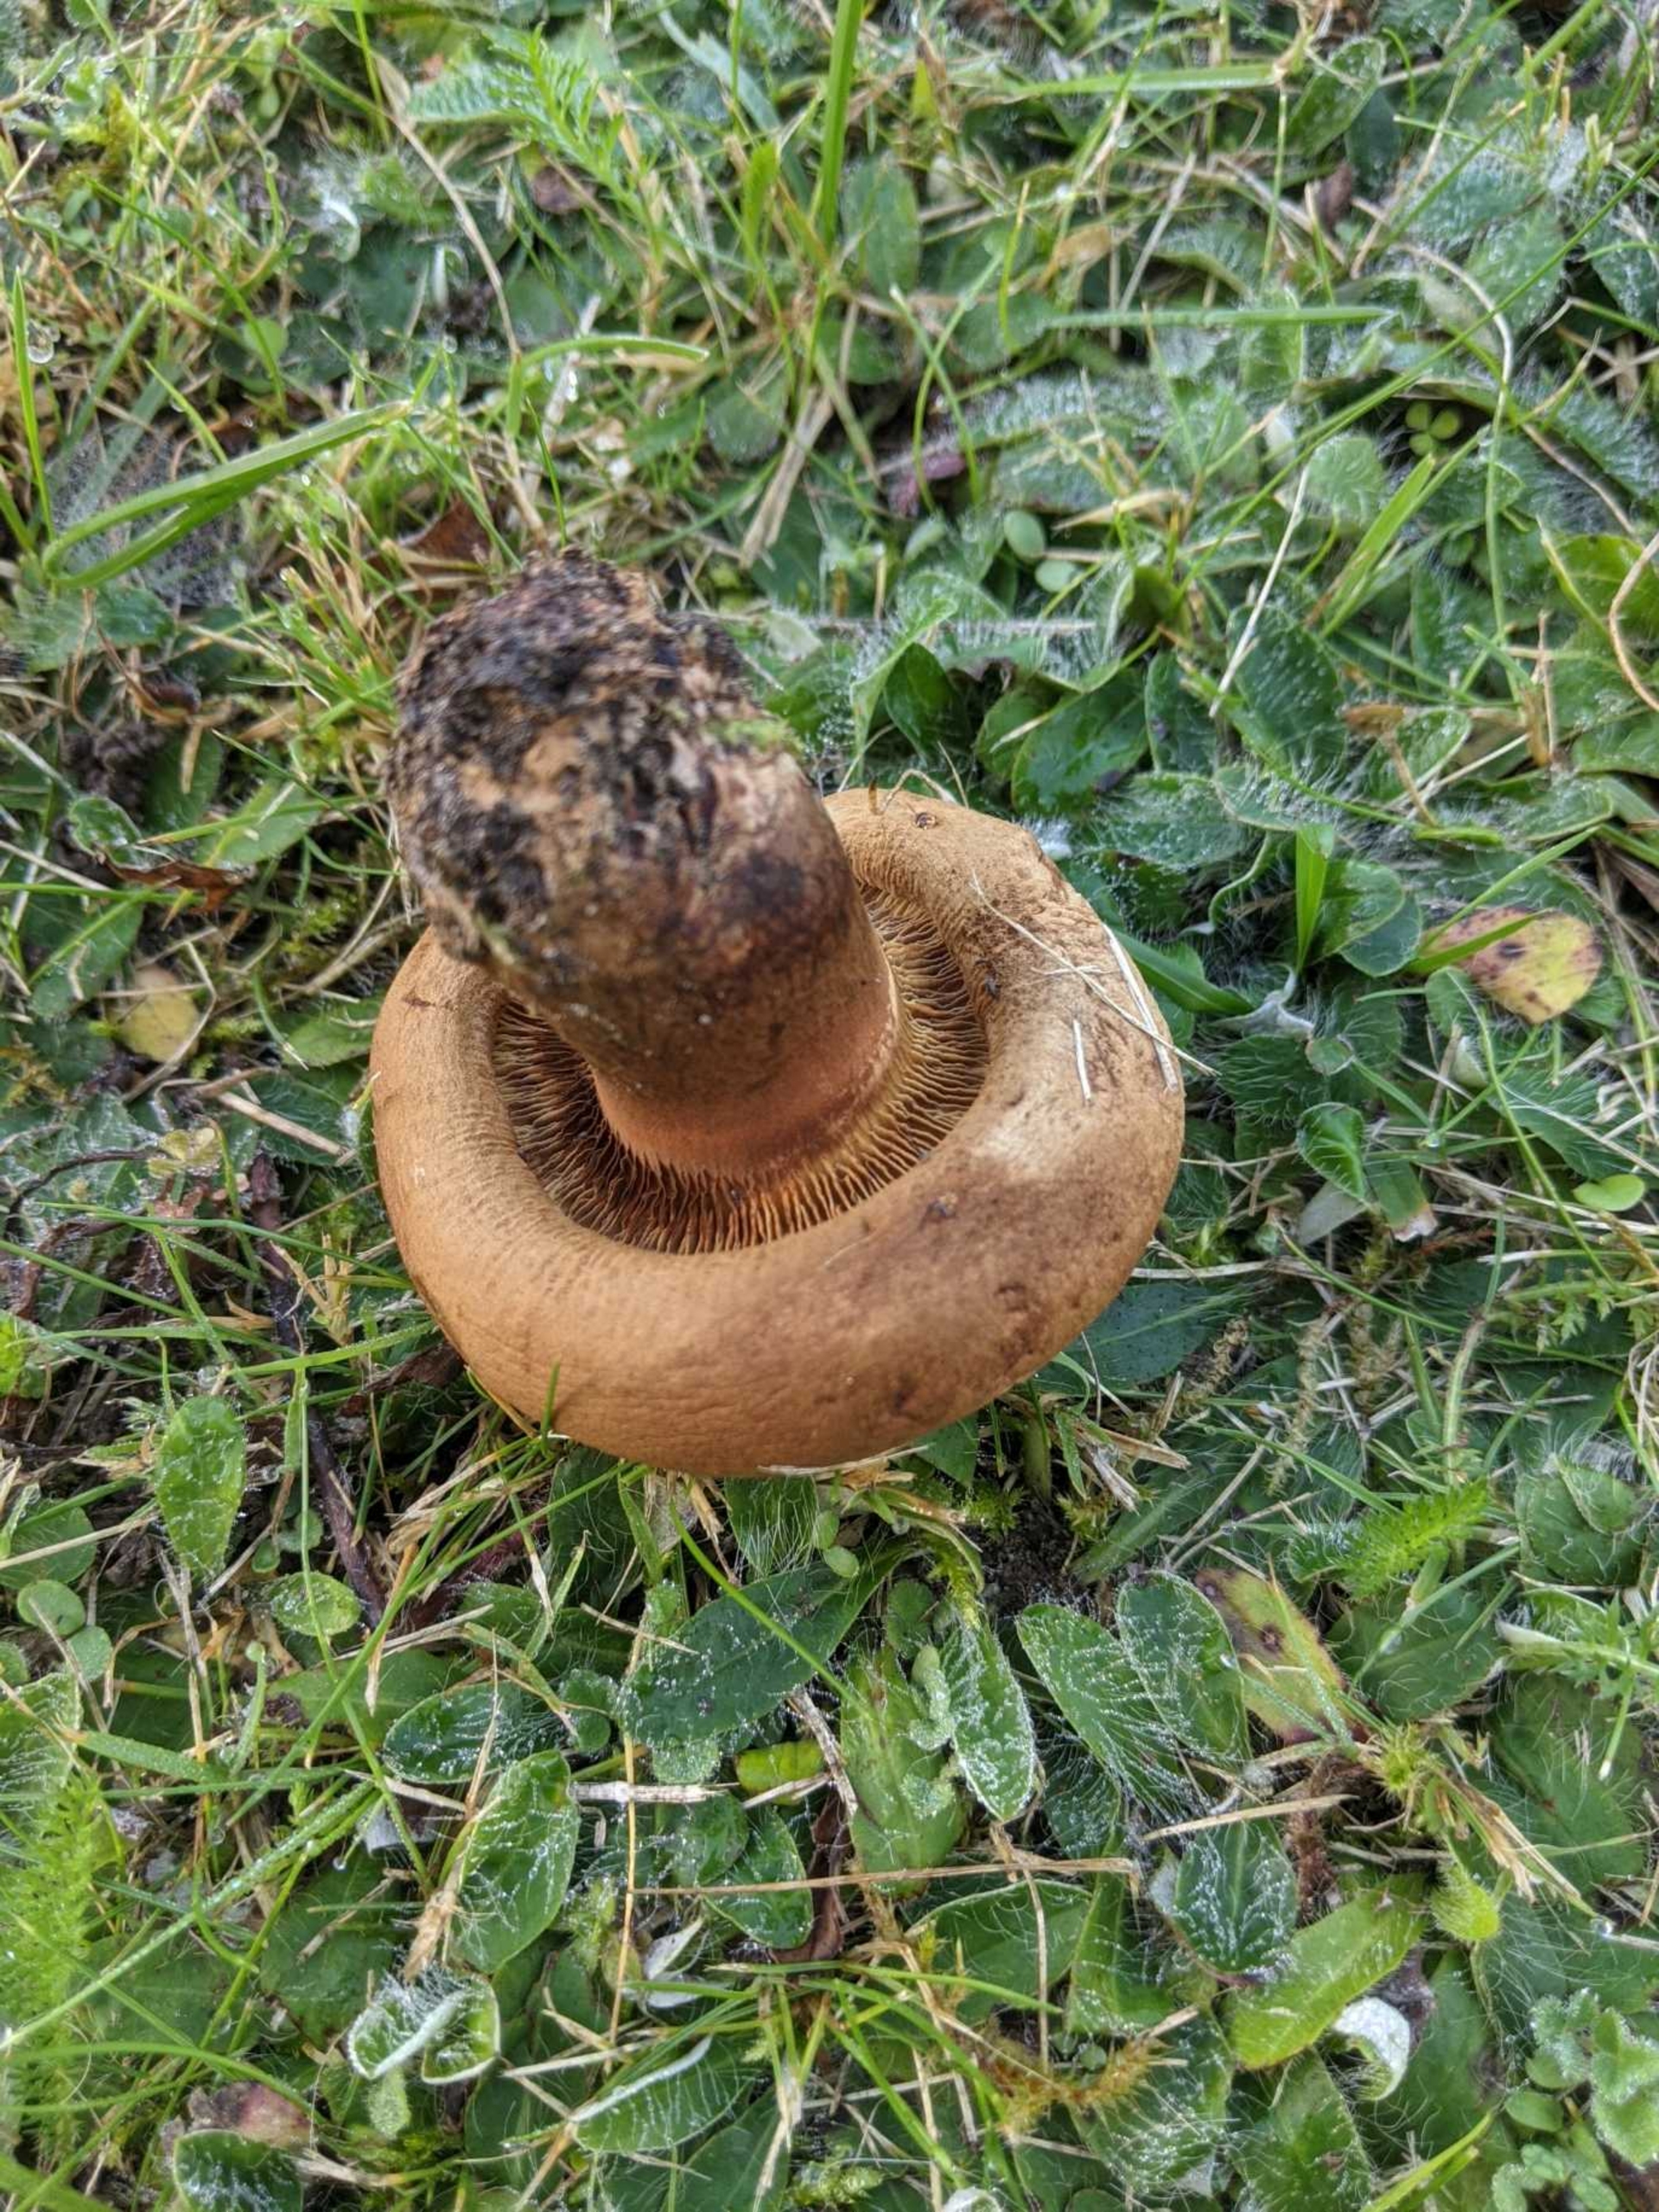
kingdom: Fungi
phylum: Basidiomycota
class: Agaricomycetes
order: Boletales
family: Paxillaceae
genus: Paxillus
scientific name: Paxillus
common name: Netbladhat
